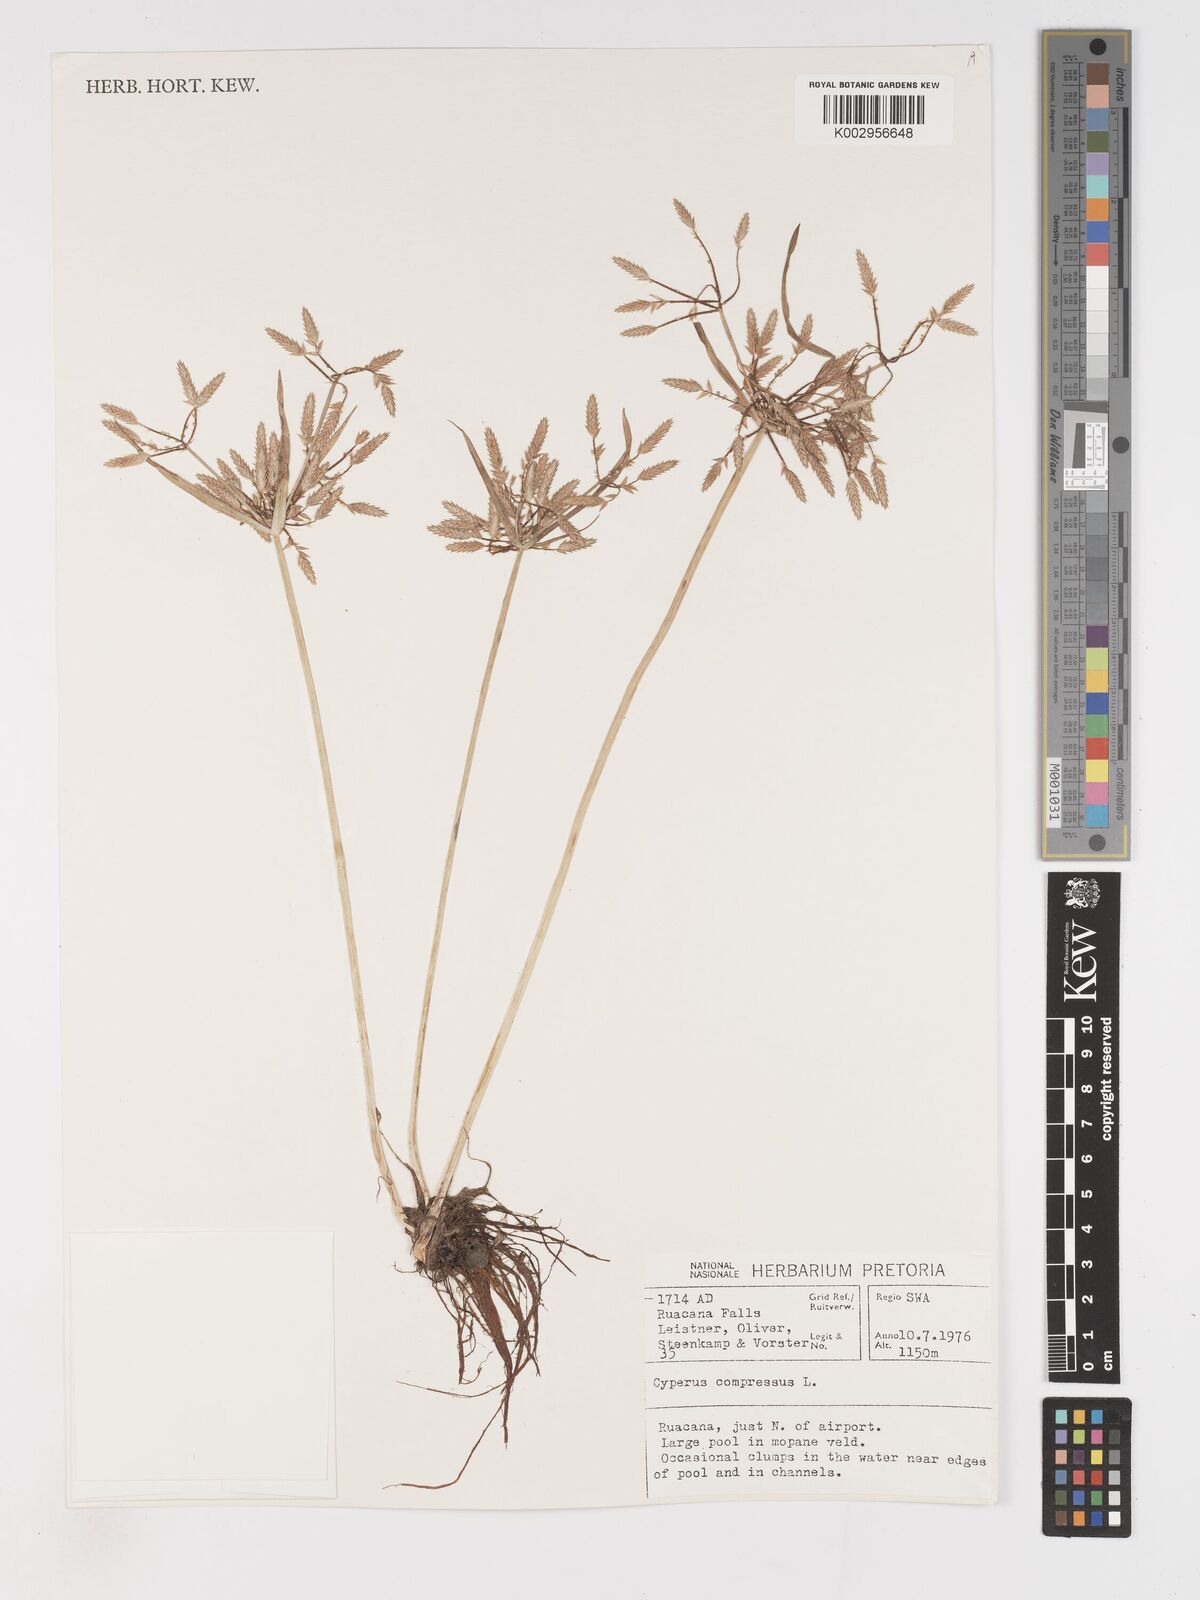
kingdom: Plantae
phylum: Tracheophyta
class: Liliopsida
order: Poales
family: Cyperaceae
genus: Cyperus
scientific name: Cyperus compressus
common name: Poorland flatsedge
